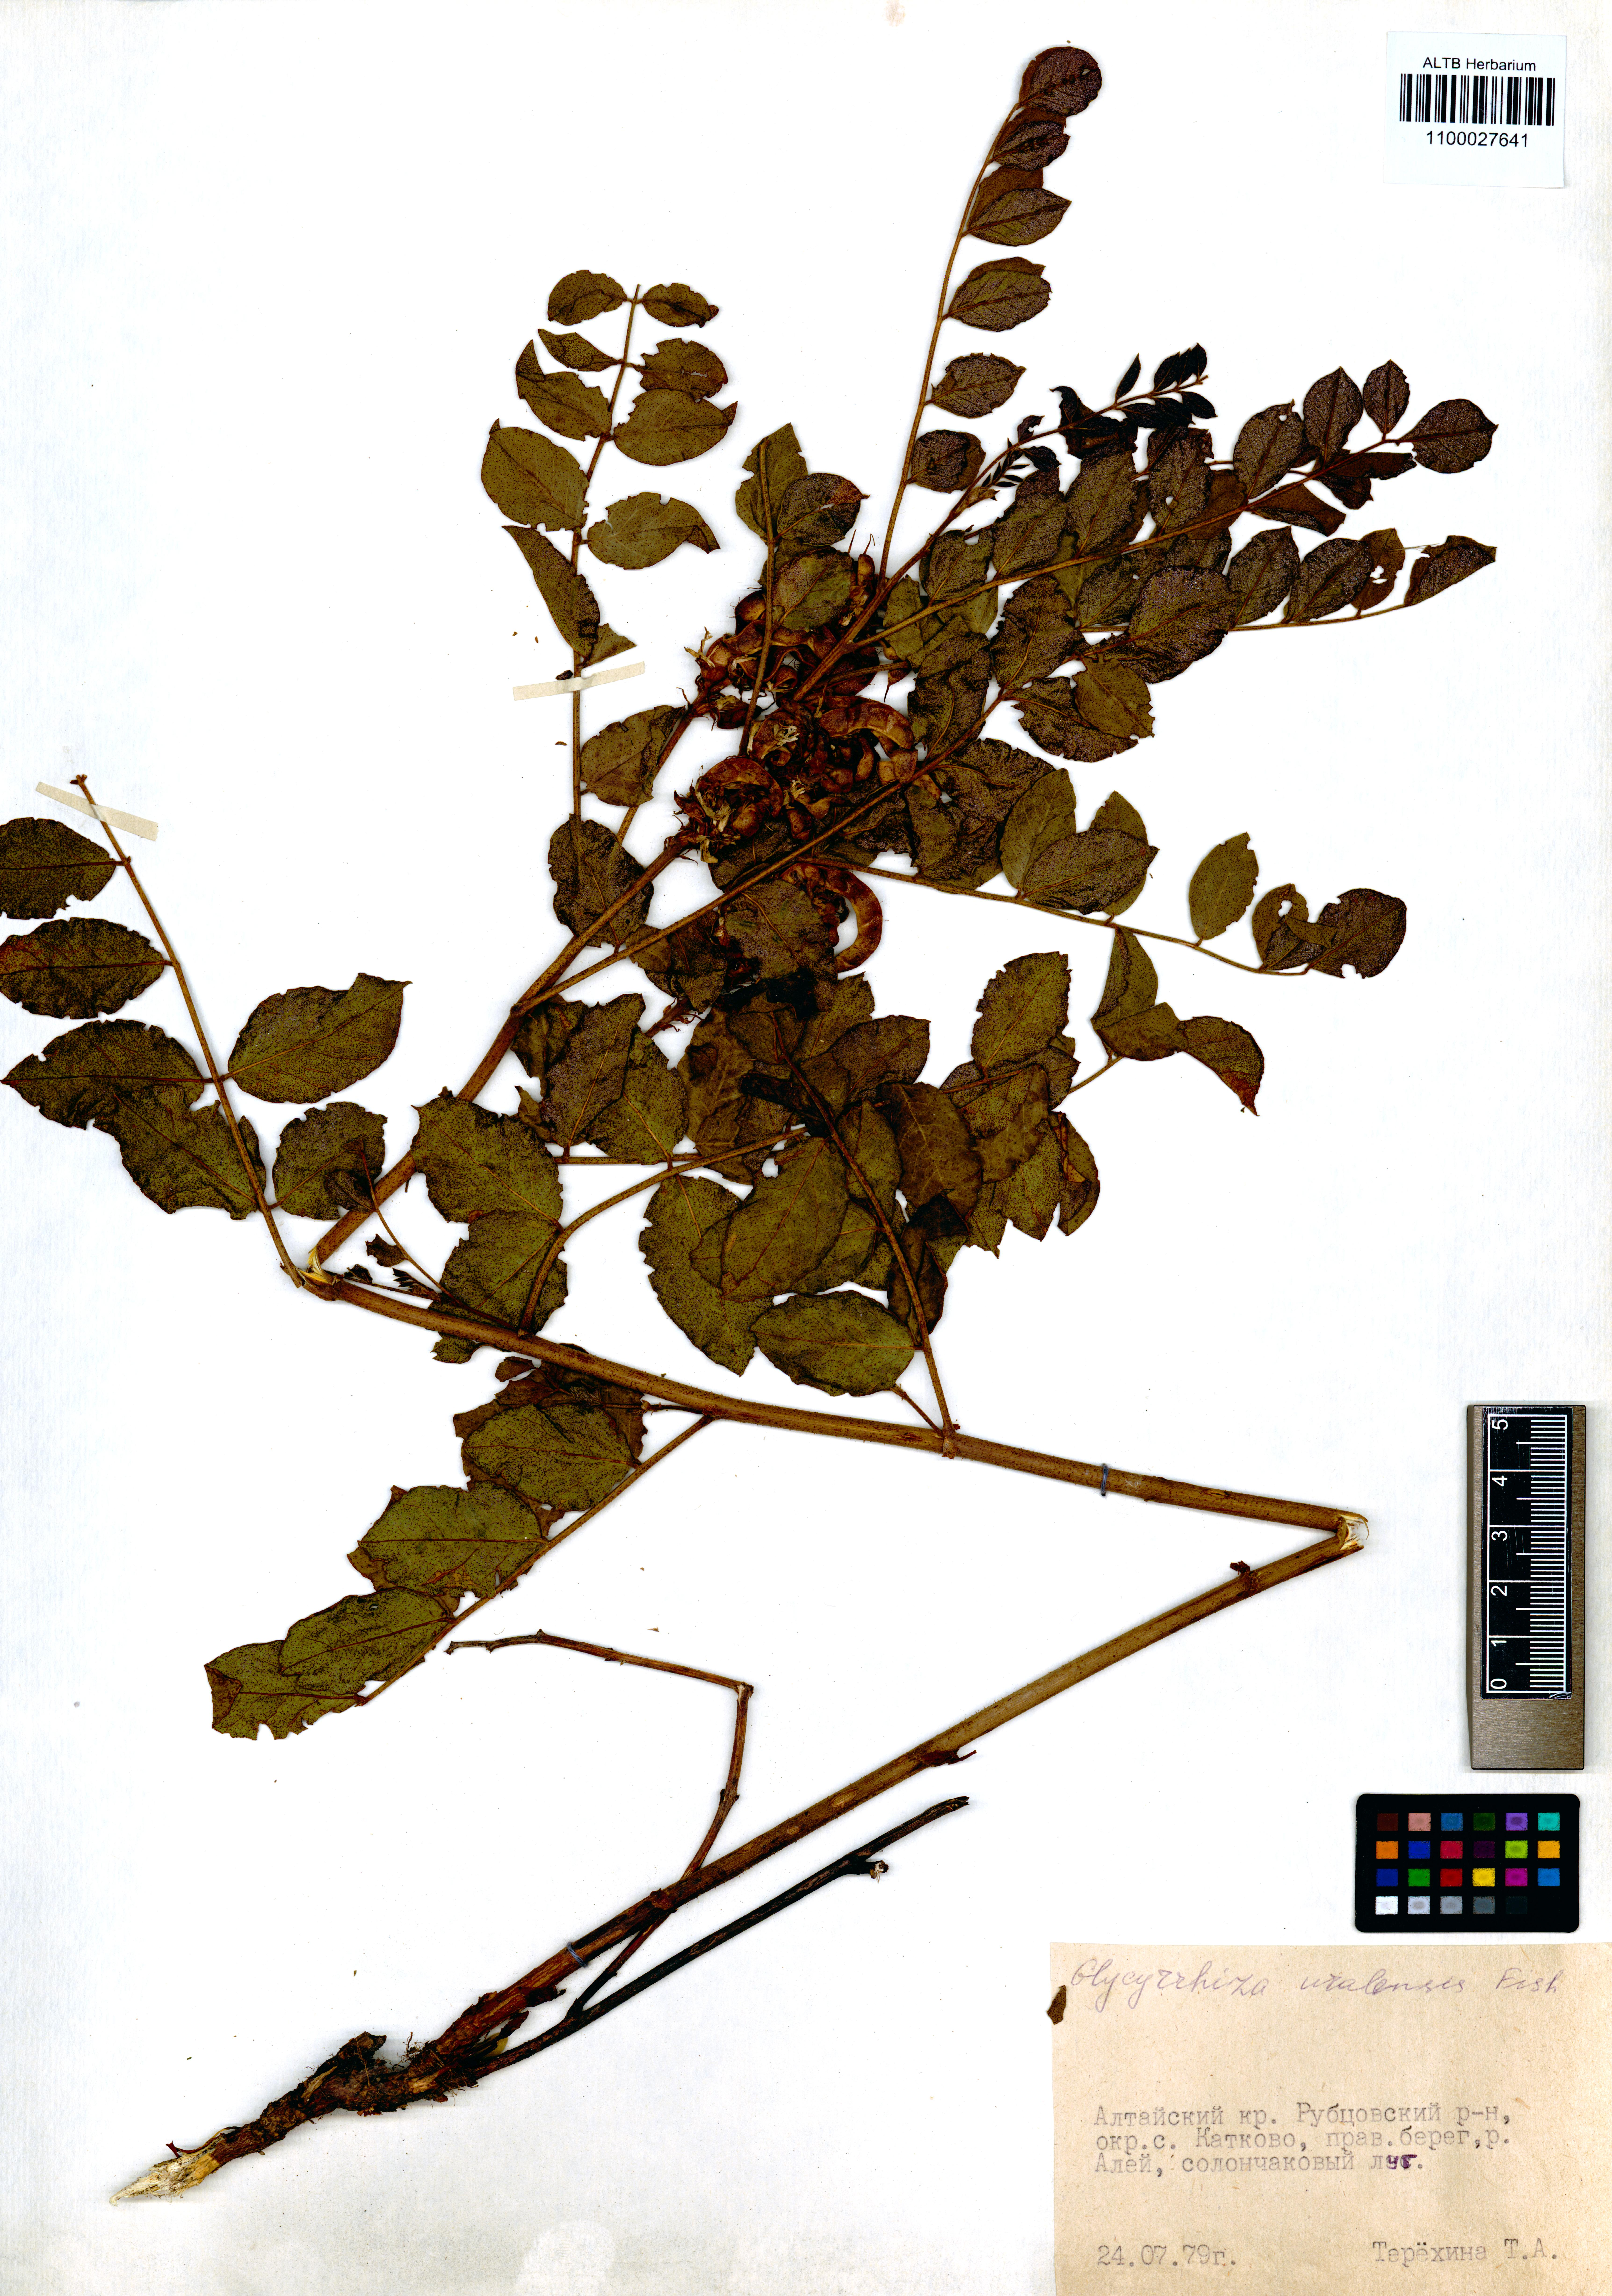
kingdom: Plantae
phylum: Tracheophyta
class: Magnoliopsida
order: Fabales
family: Fabaceae
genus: Glycyrrhiza
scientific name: Glycyrrhiza uralensis
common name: Chinese licorice
